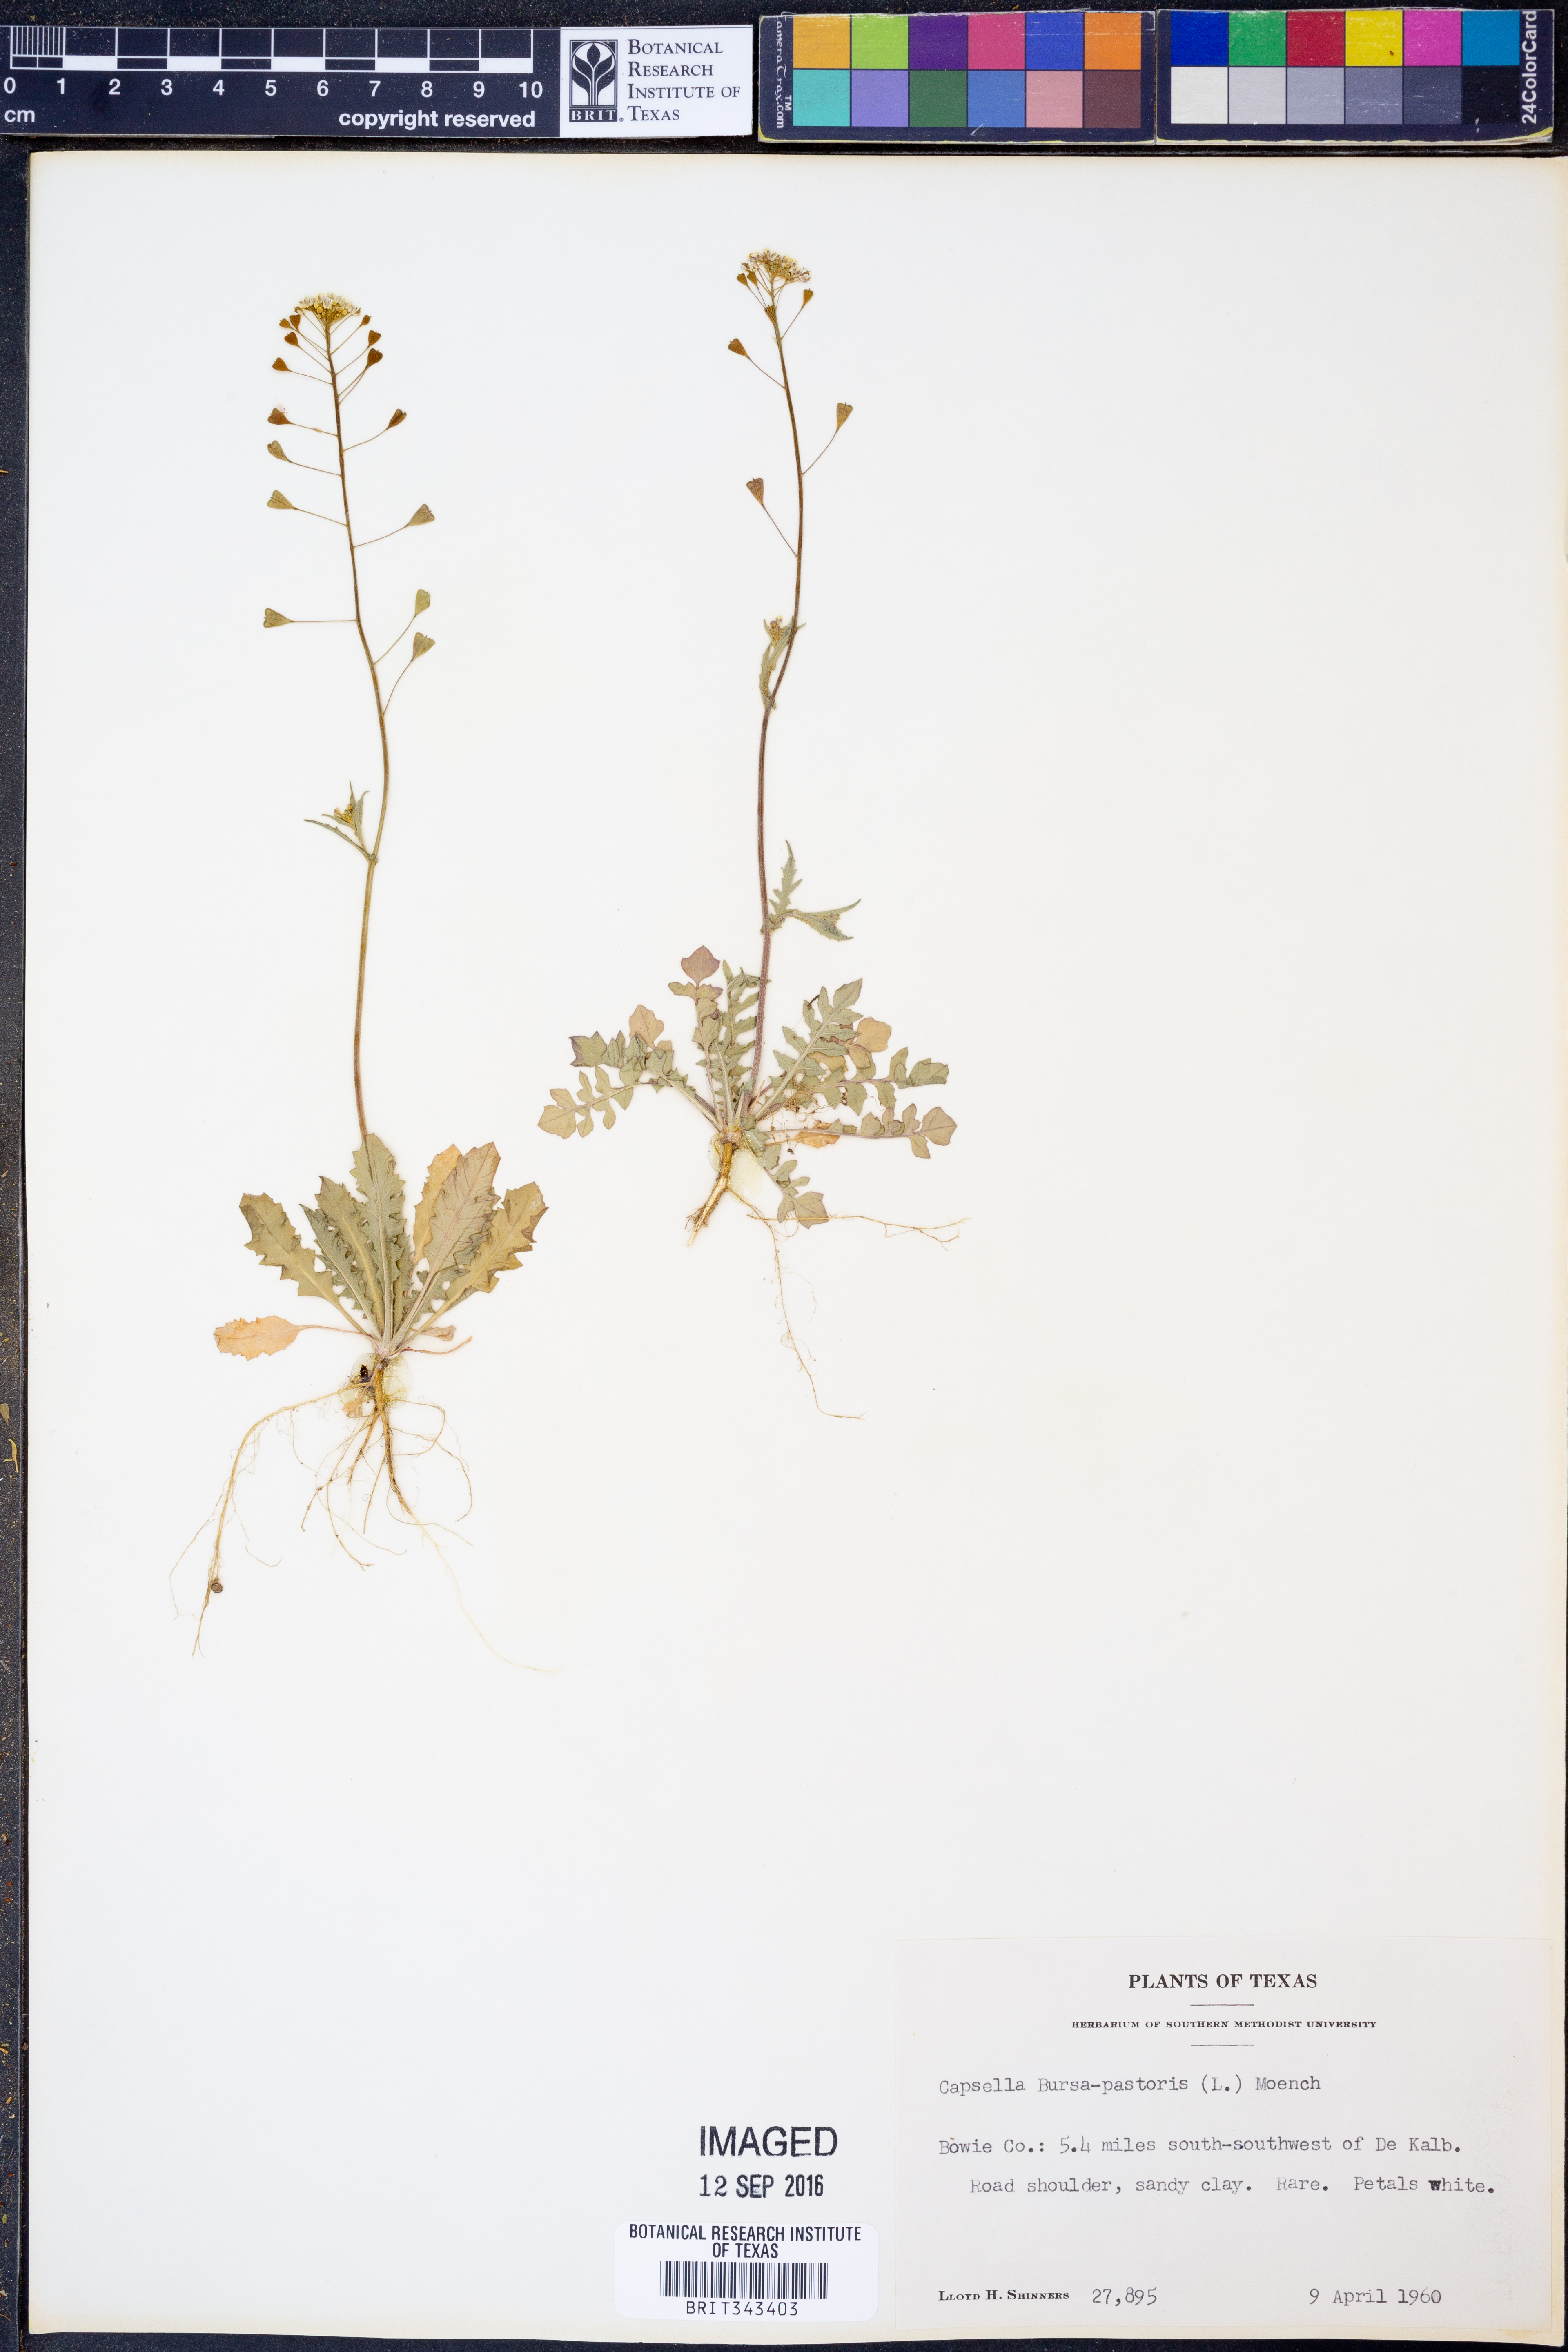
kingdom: Plantae
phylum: Tracheophyta
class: Magnoliopsida
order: Brassicales
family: Brassicaceae
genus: Capsella
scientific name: Capsella bursa-pastoris
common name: Shepherd's purse
